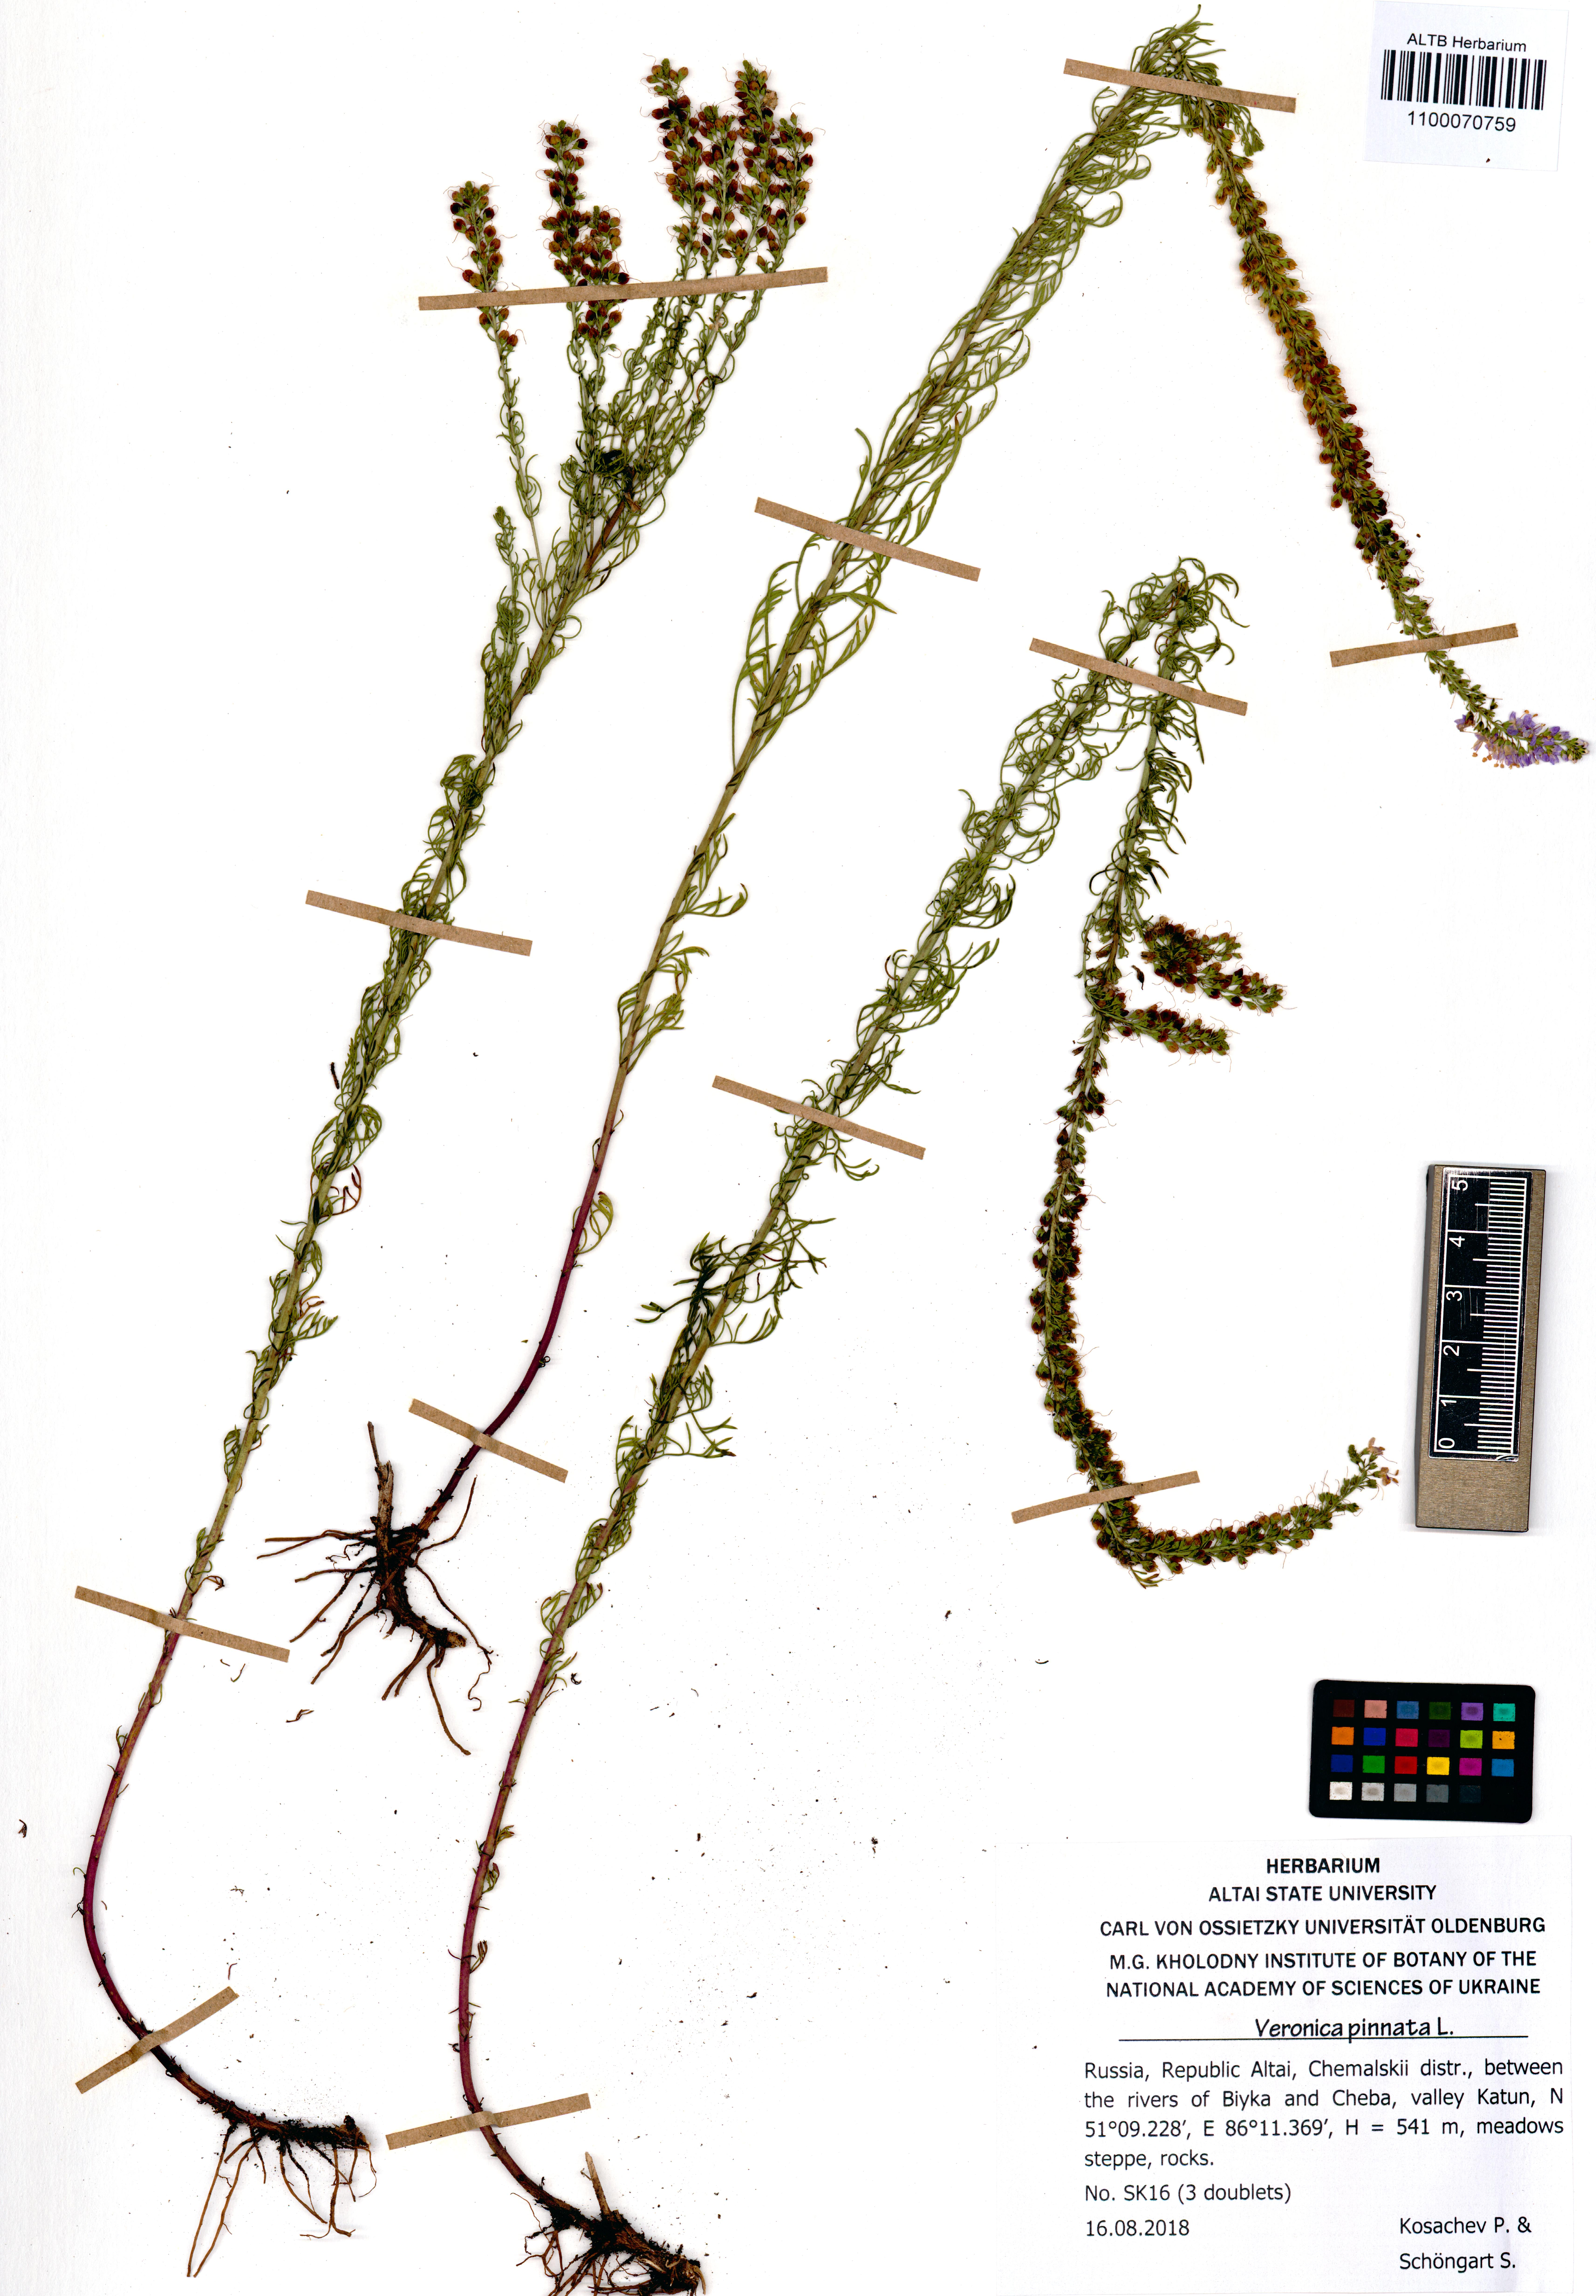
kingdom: Plantae
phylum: Tracheophyta
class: Magnoliopsida
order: Lamiales
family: Plantaginaceae
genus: Veronica
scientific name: Veronica pinnata
